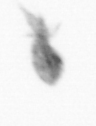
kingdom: Animalia
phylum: Arthropoda
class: Copepoda
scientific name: Copepoda
